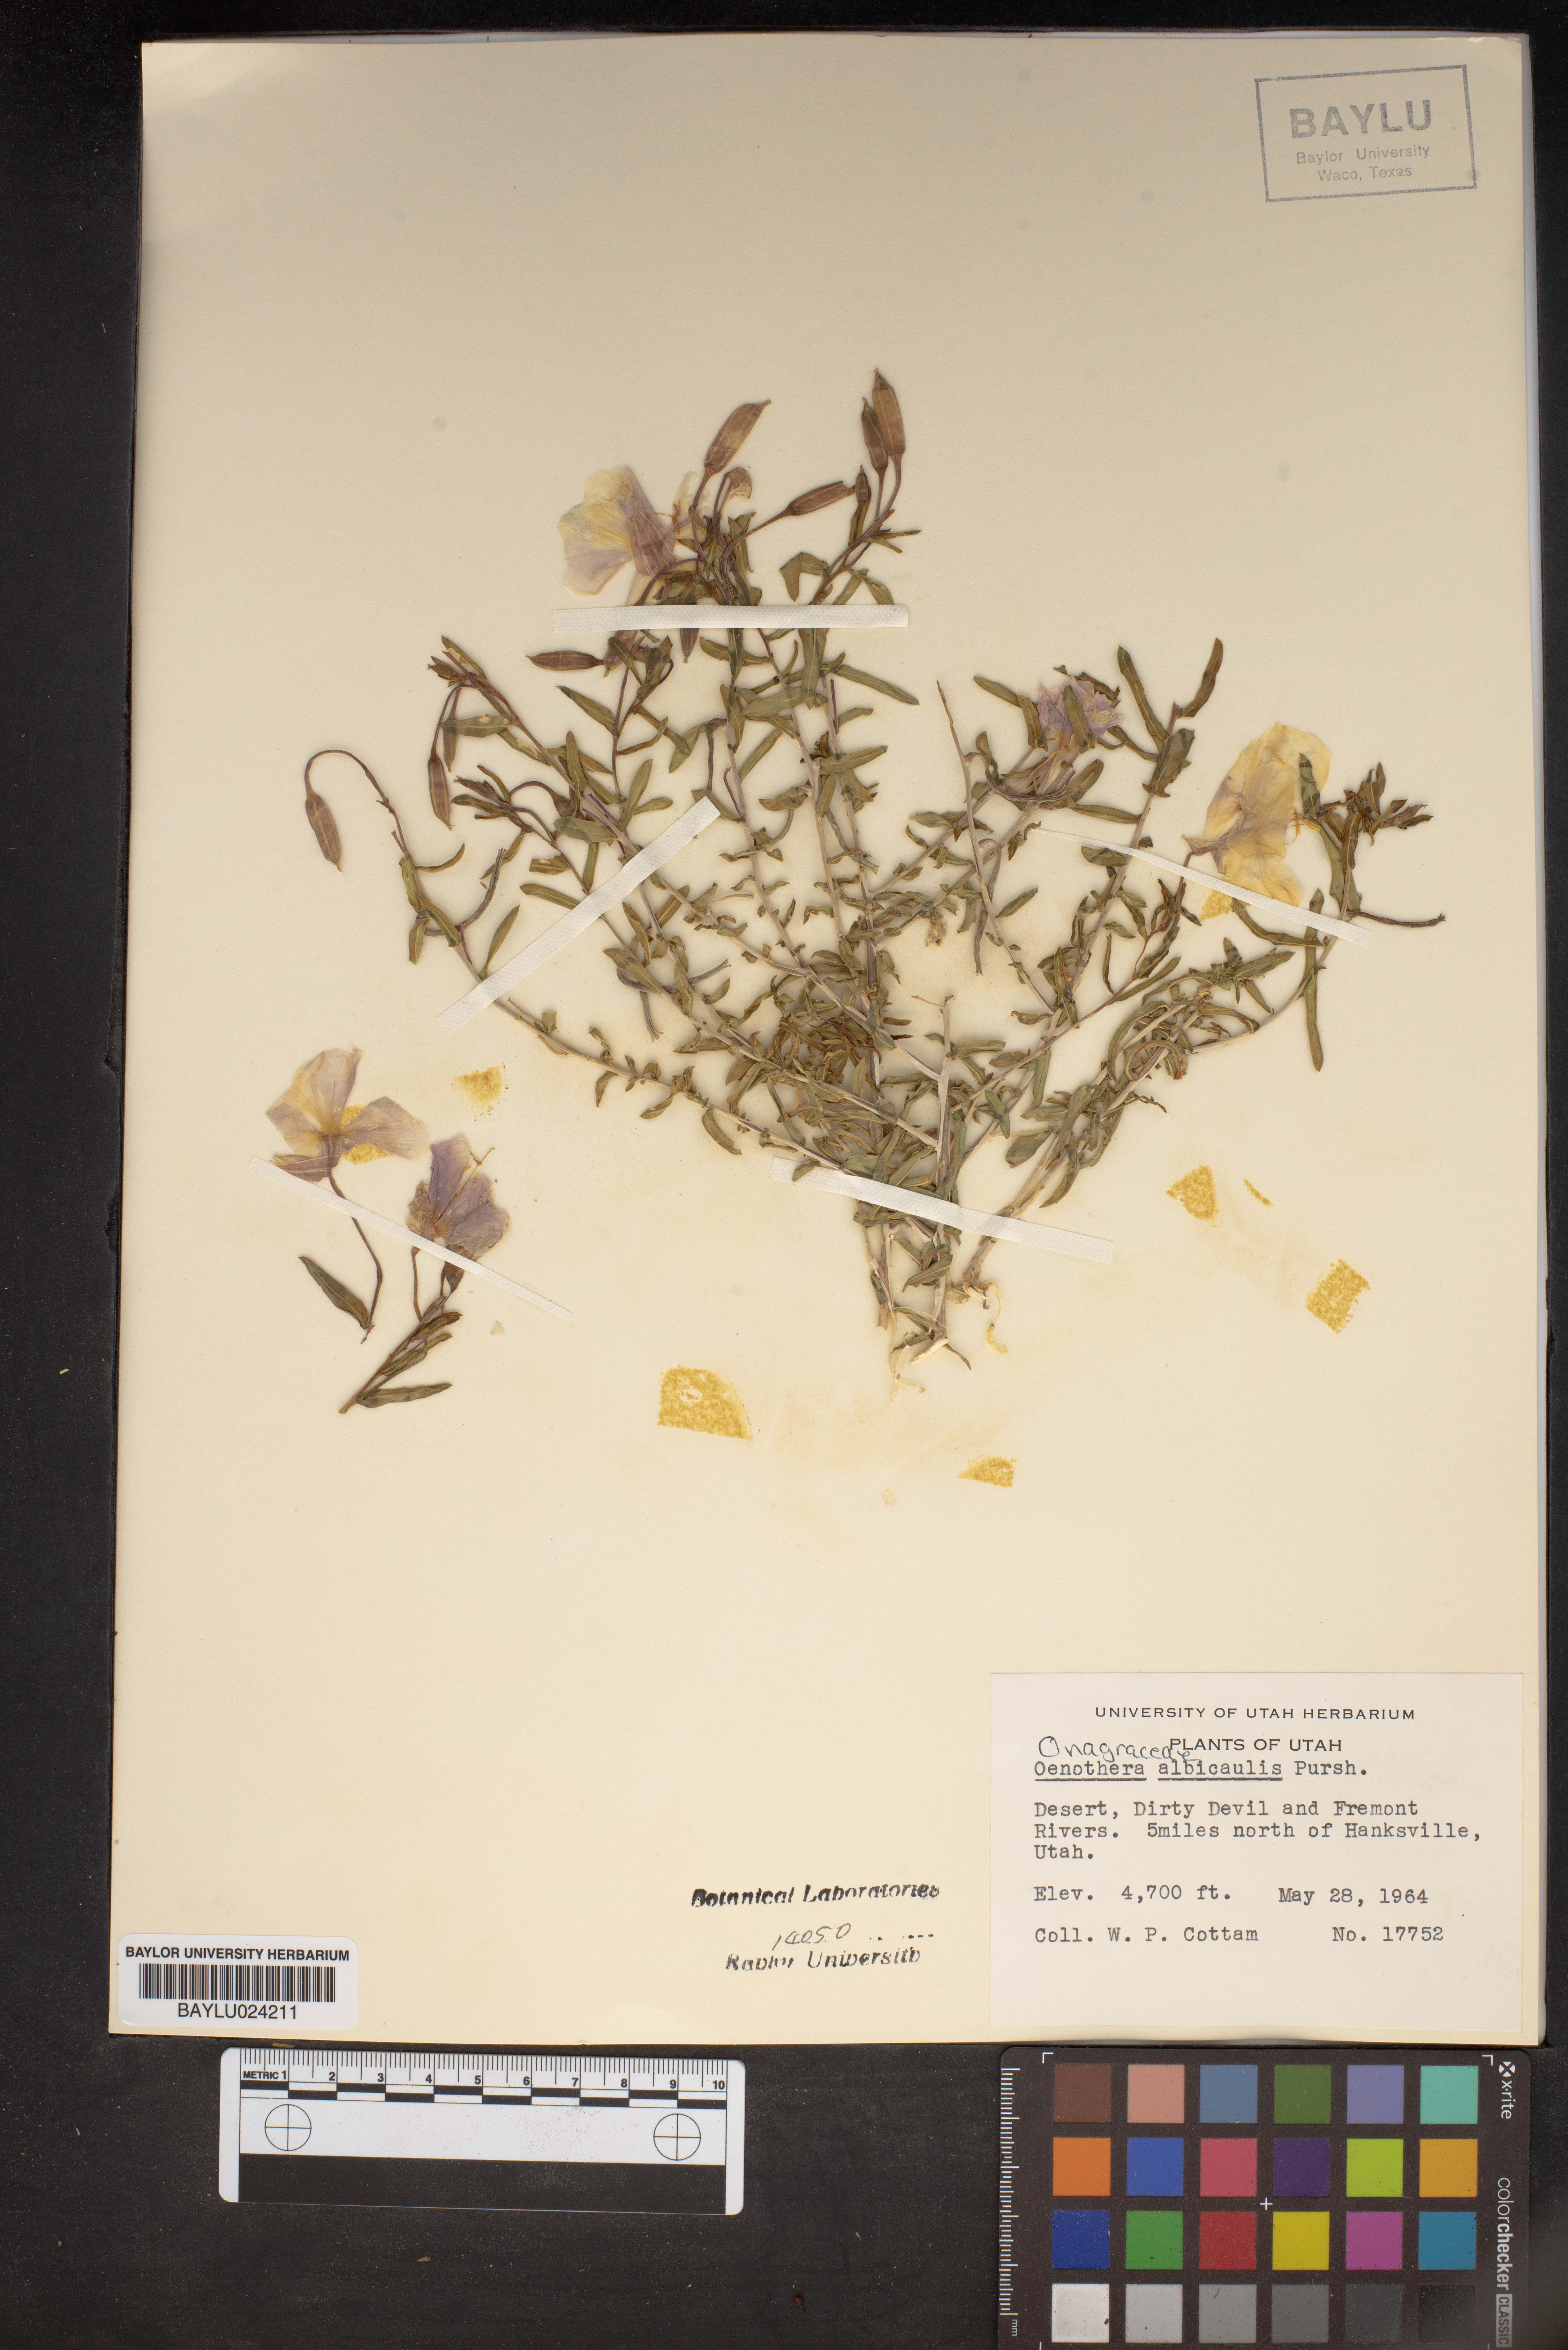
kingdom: Plantae
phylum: Tracheophyta
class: Magnoliopsida
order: Myrtales
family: Onagraceae
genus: Oenothera
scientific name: Oenothera albicaulis
